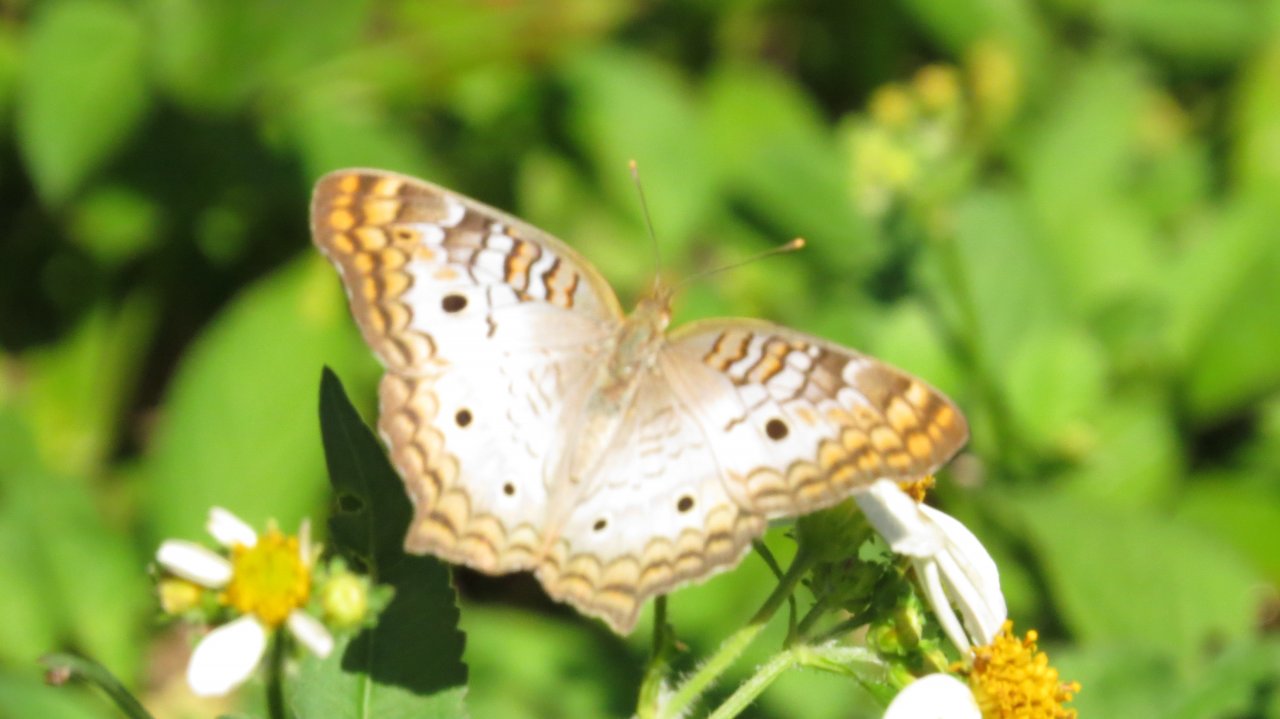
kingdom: Animalia
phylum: Arthropoda
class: Insecta
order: Lepidoptera
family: Nymphalidae
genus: Anartia
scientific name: Anartia jatrophae
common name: White Peacock
